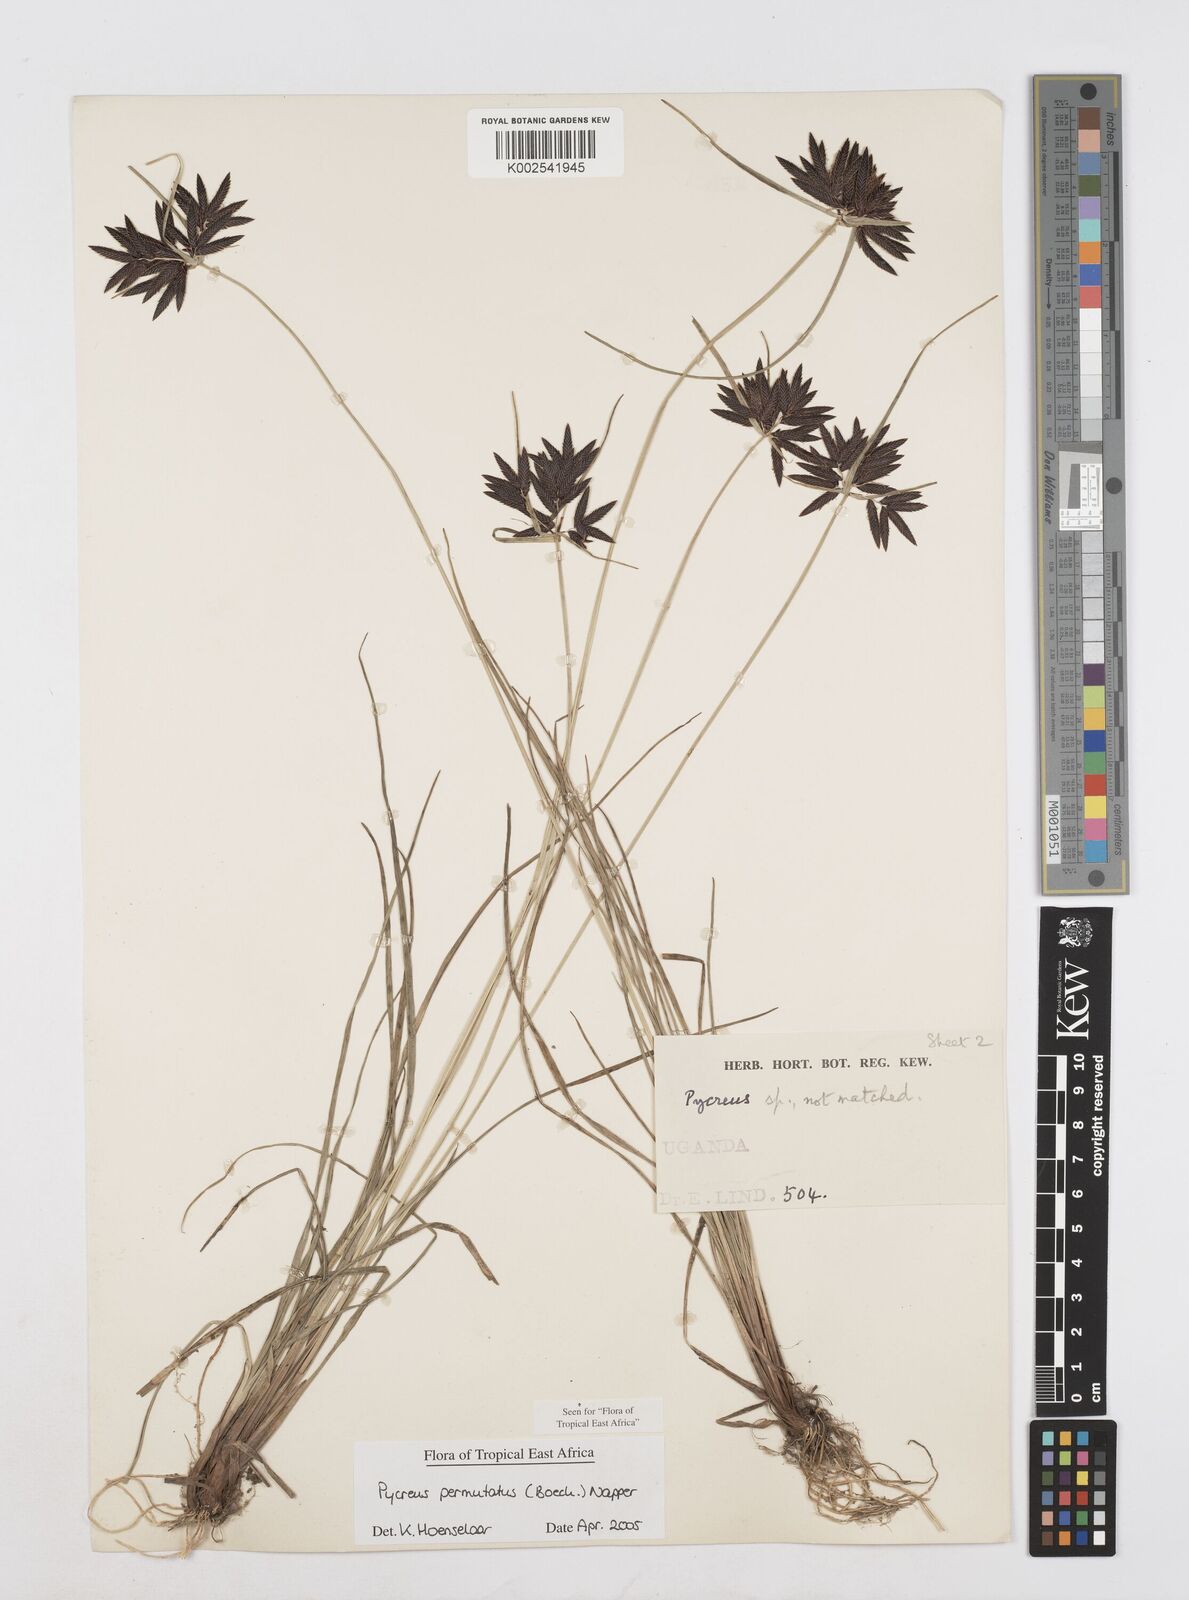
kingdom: Plantae
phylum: Tracheophyta
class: Liliopsida
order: Poales
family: Cyperaceae
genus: Cyperus
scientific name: Cyperus nigricans
